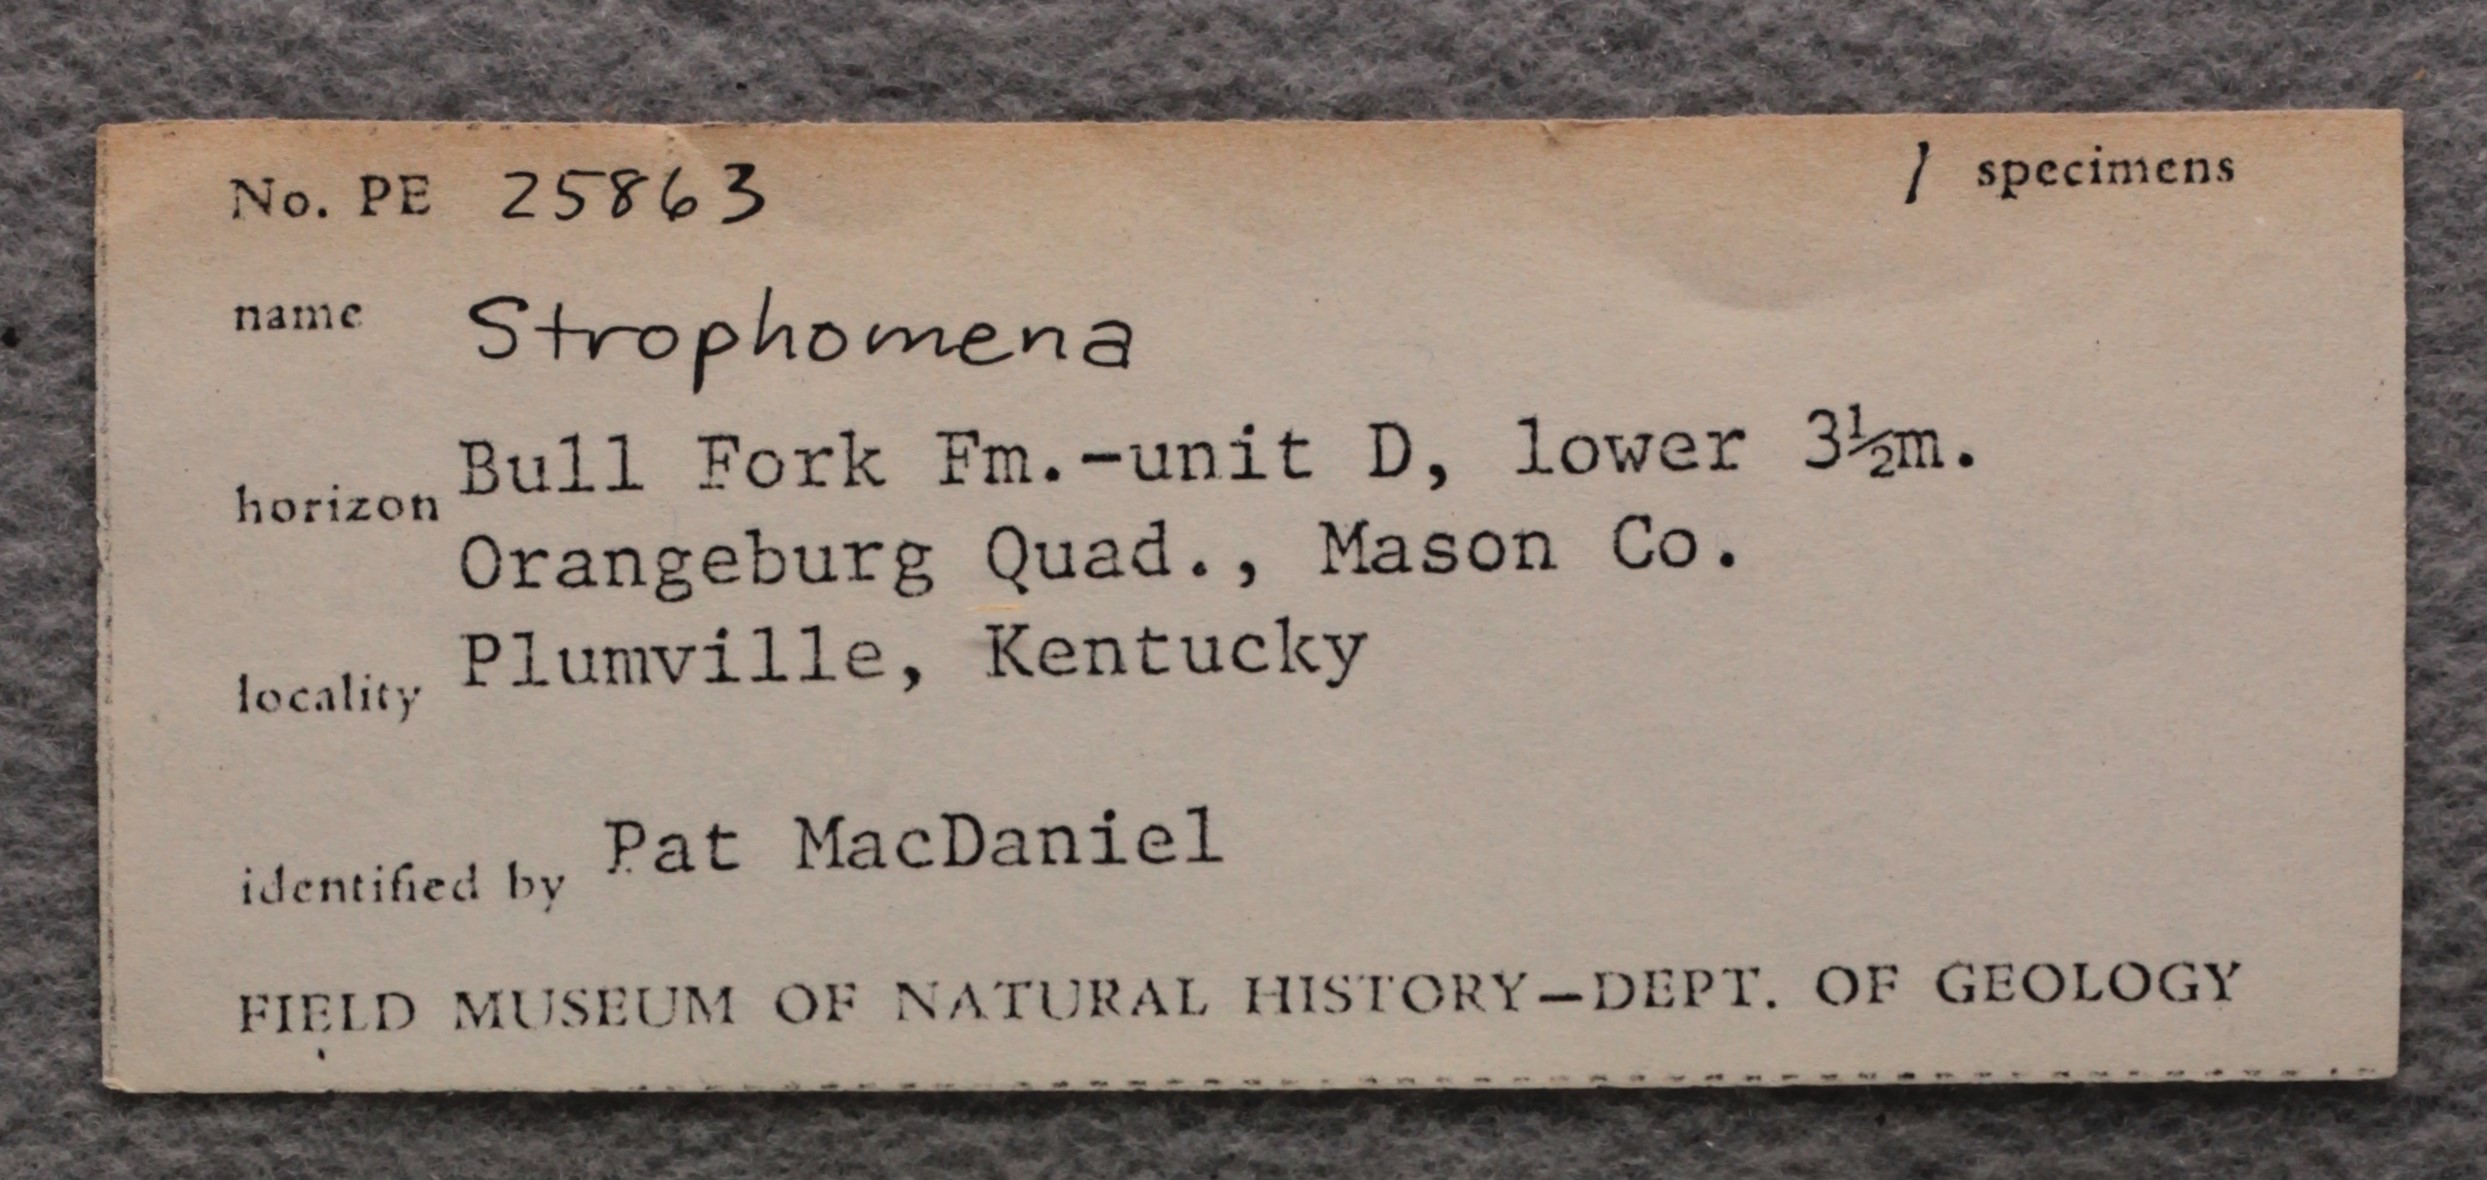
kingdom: Animalia
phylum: Brachiopoda
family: Strophomenidae
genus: Strophomena
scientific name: Strophomena
